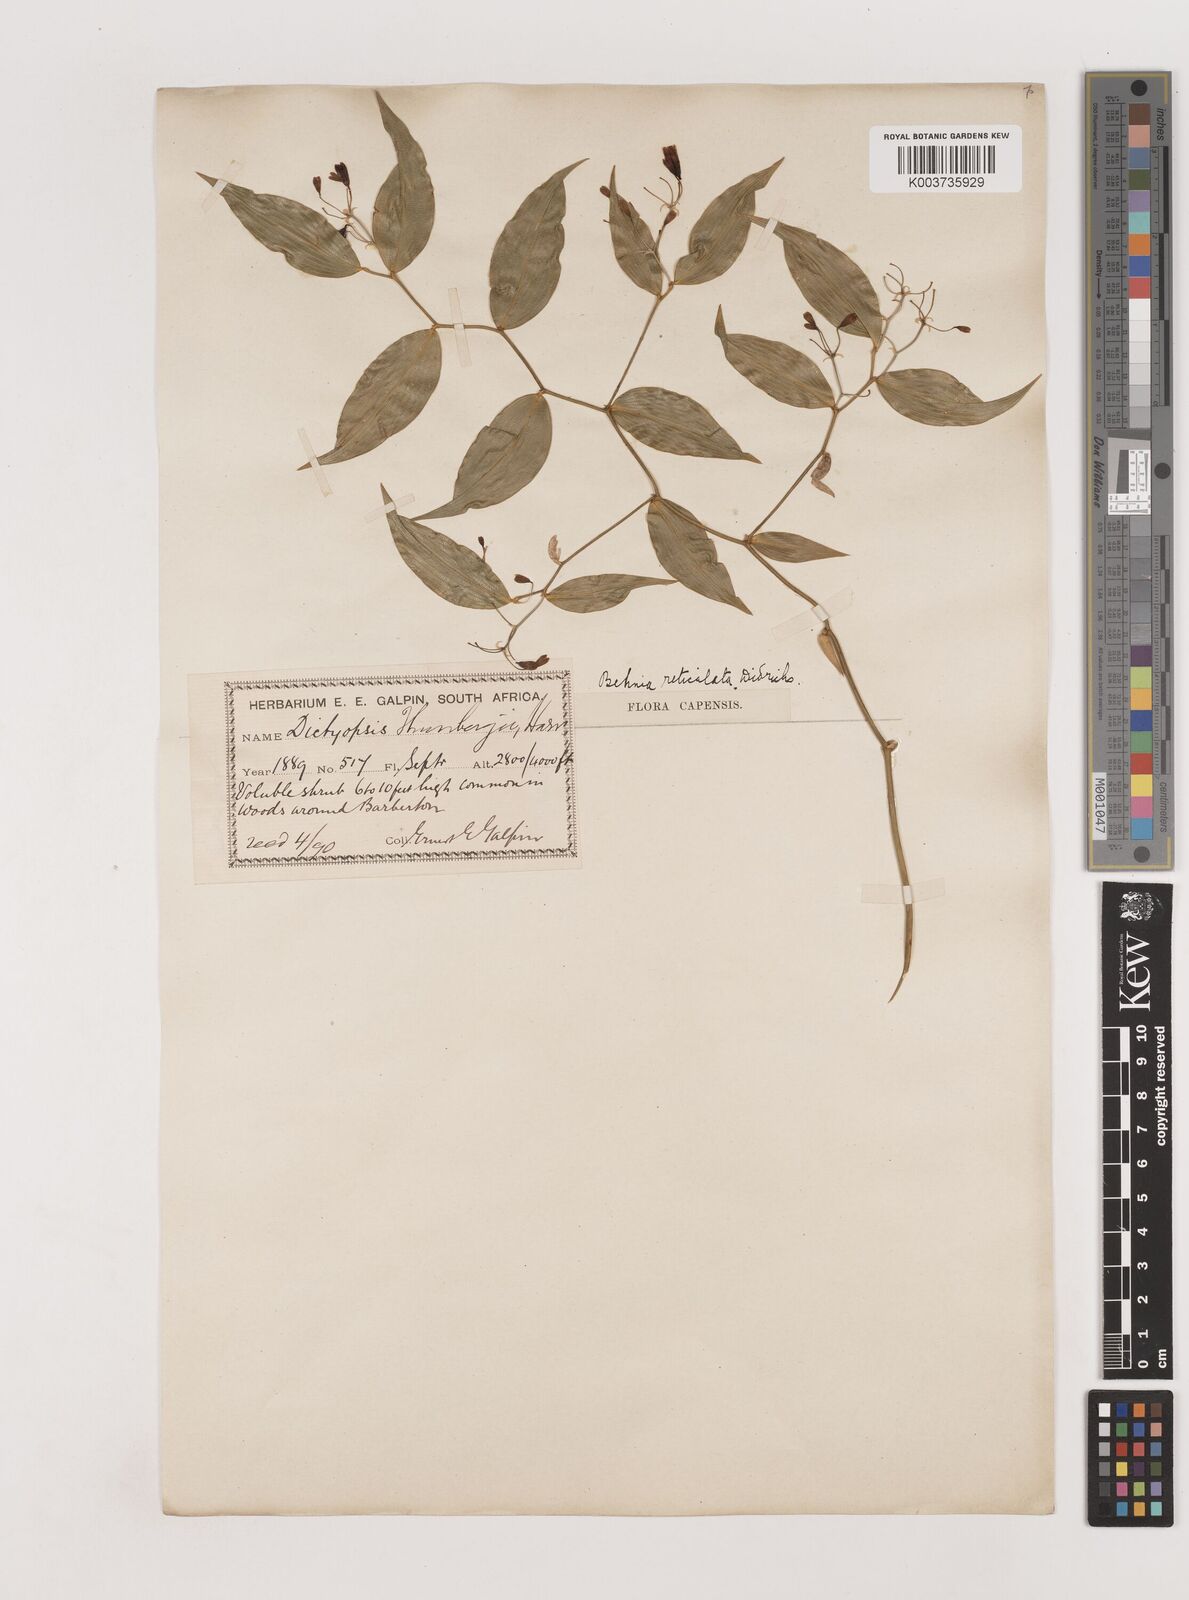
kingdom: Plantae
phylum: Tracheophyta
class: Liliopsida
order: Asparagales
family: Asparagaceae
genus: Behnia
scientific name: Behnia reticulata
